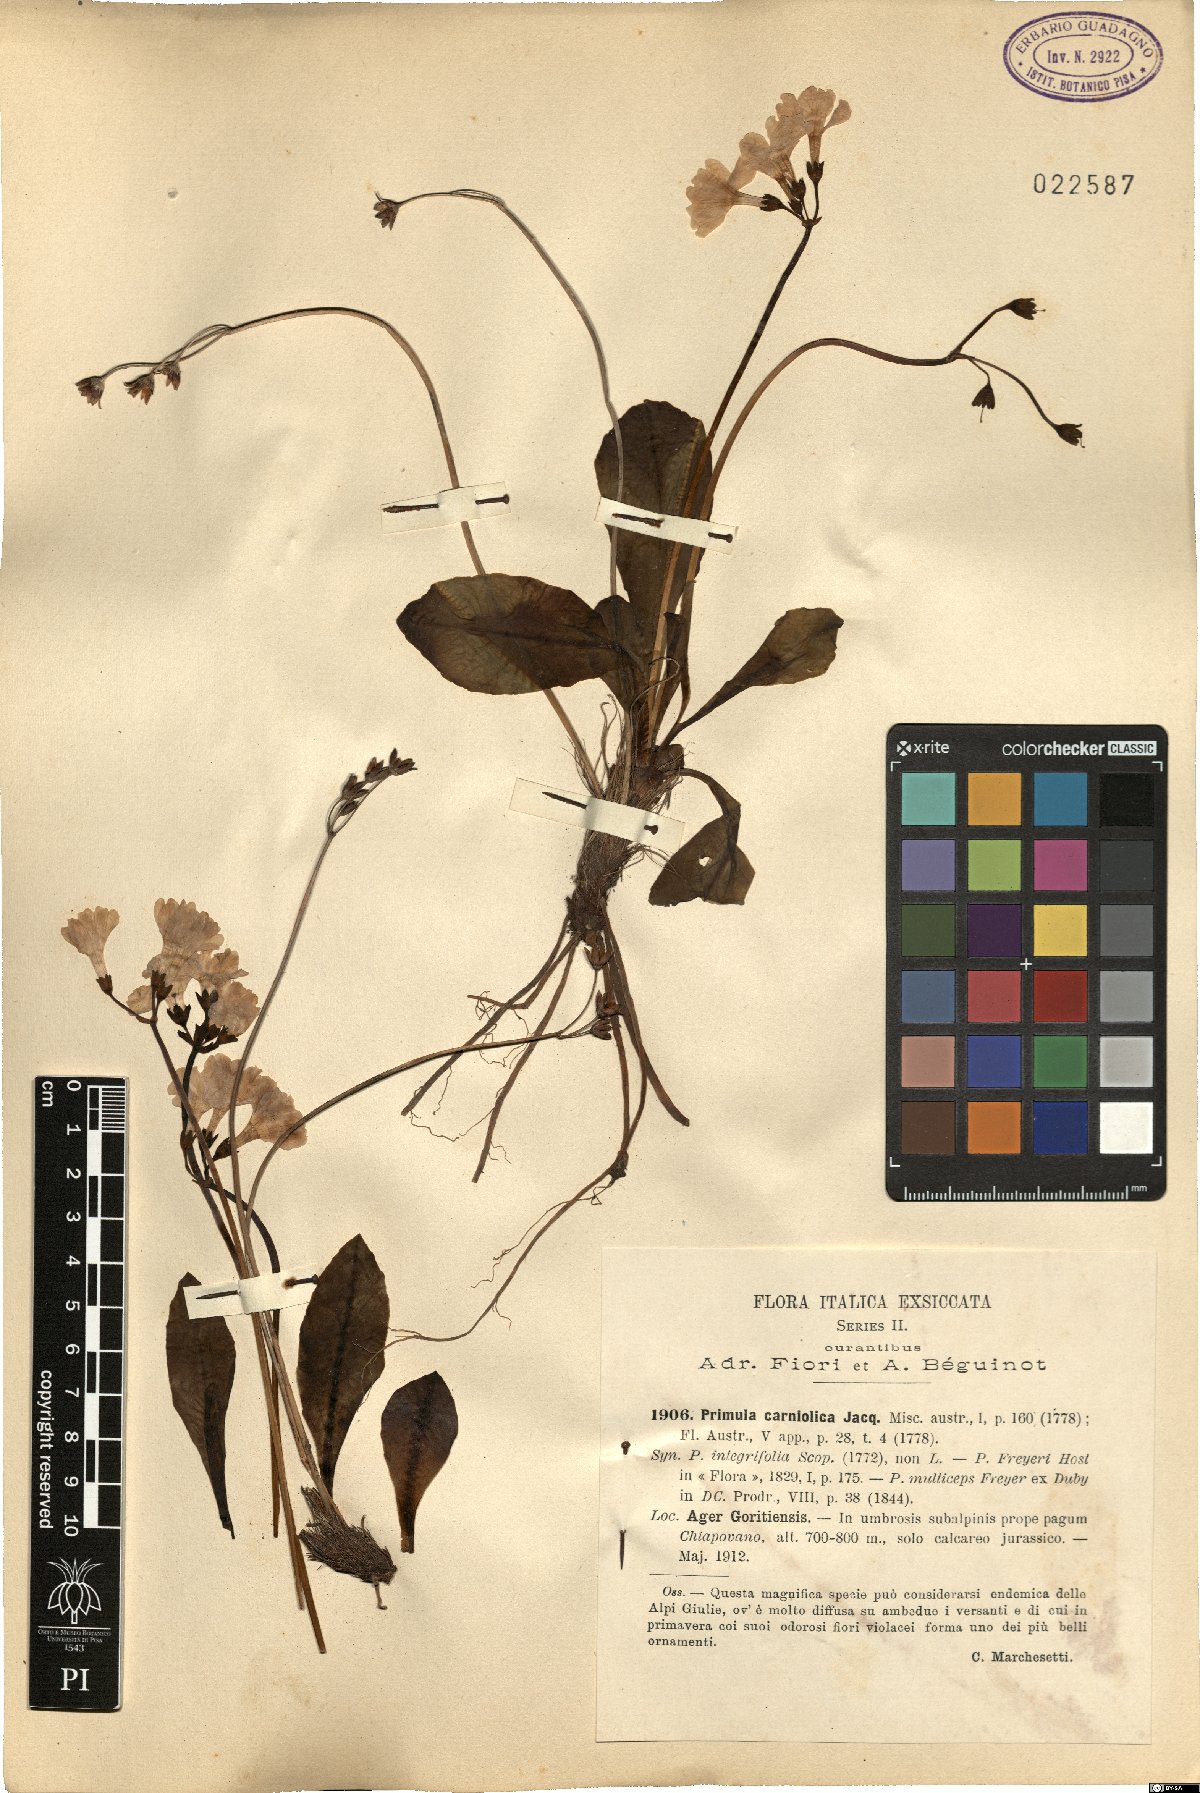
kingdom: Plantae
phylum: Tracheophyta
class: Magnoliopsida
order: Ericales
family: Primulaceae
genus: Primula
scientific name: Primula carniolica
